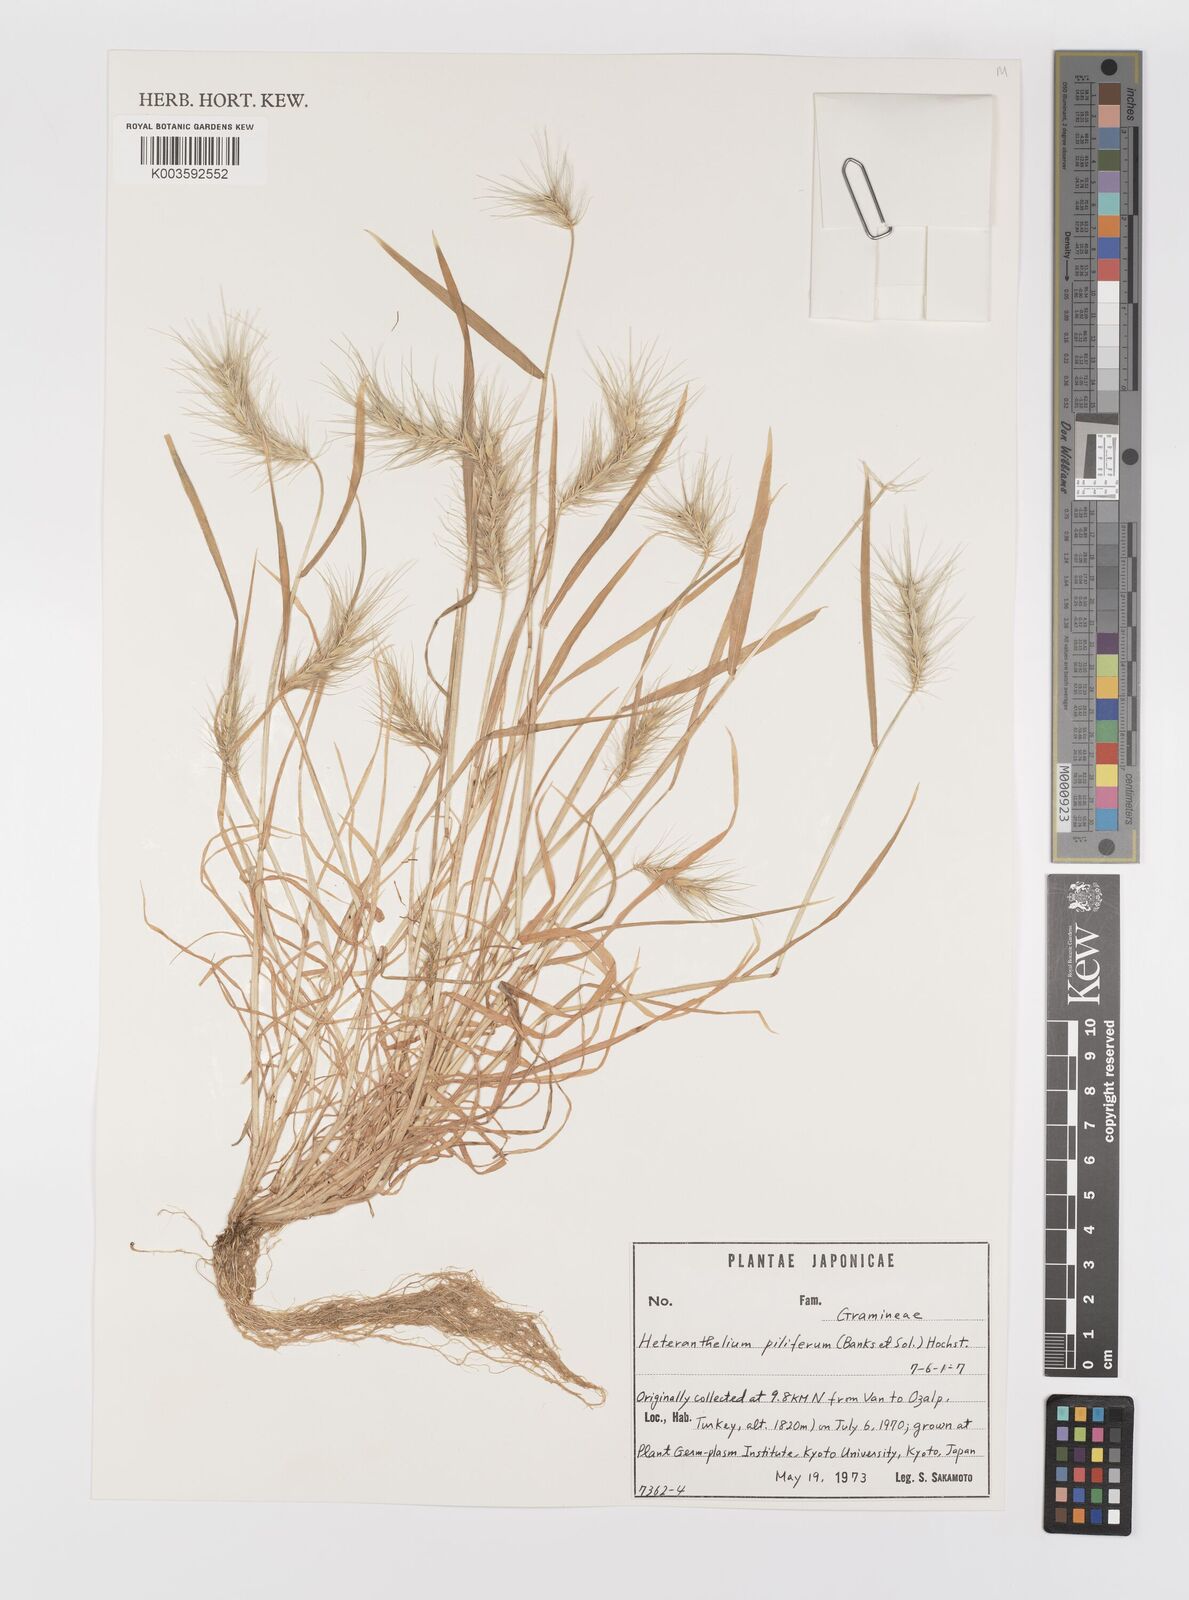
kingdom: Plantae
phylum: Tracheophyta
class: Liliopsida
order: Poales
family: Poaceae
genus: Heteranthelium
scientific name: Heteranthelium piliferum
